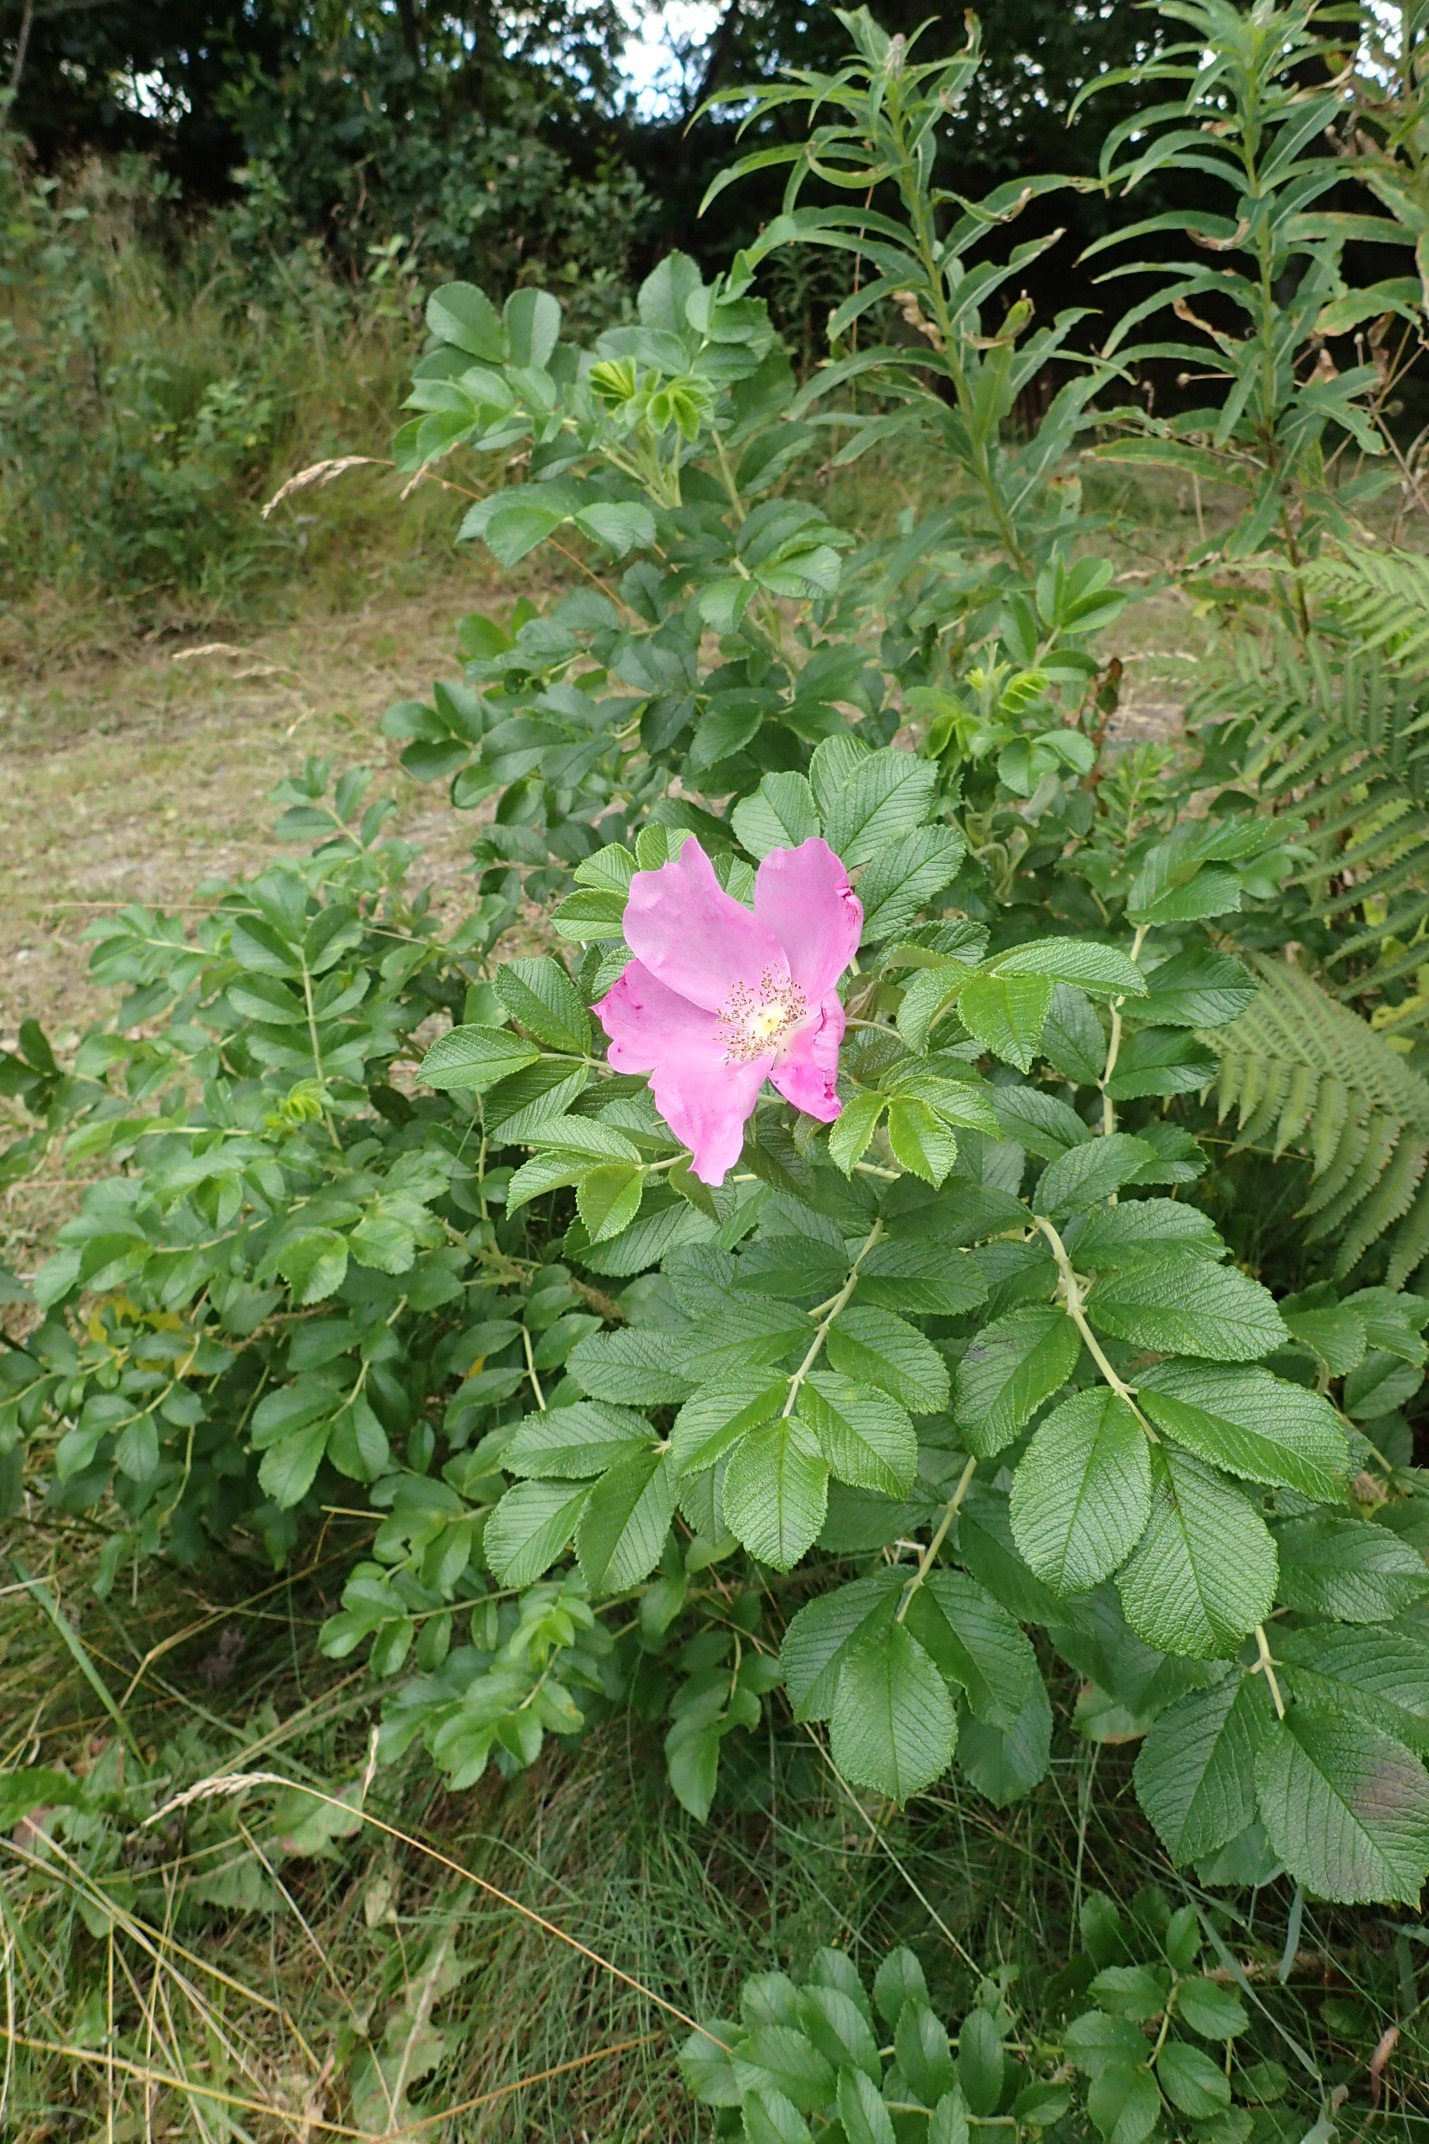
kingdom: Plantae
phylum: Tracheophyta
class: Magnoliopsida
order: Rosales
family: Rosaceae
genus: Rosa
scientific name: Rosa rugosa
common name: Rynket rose
